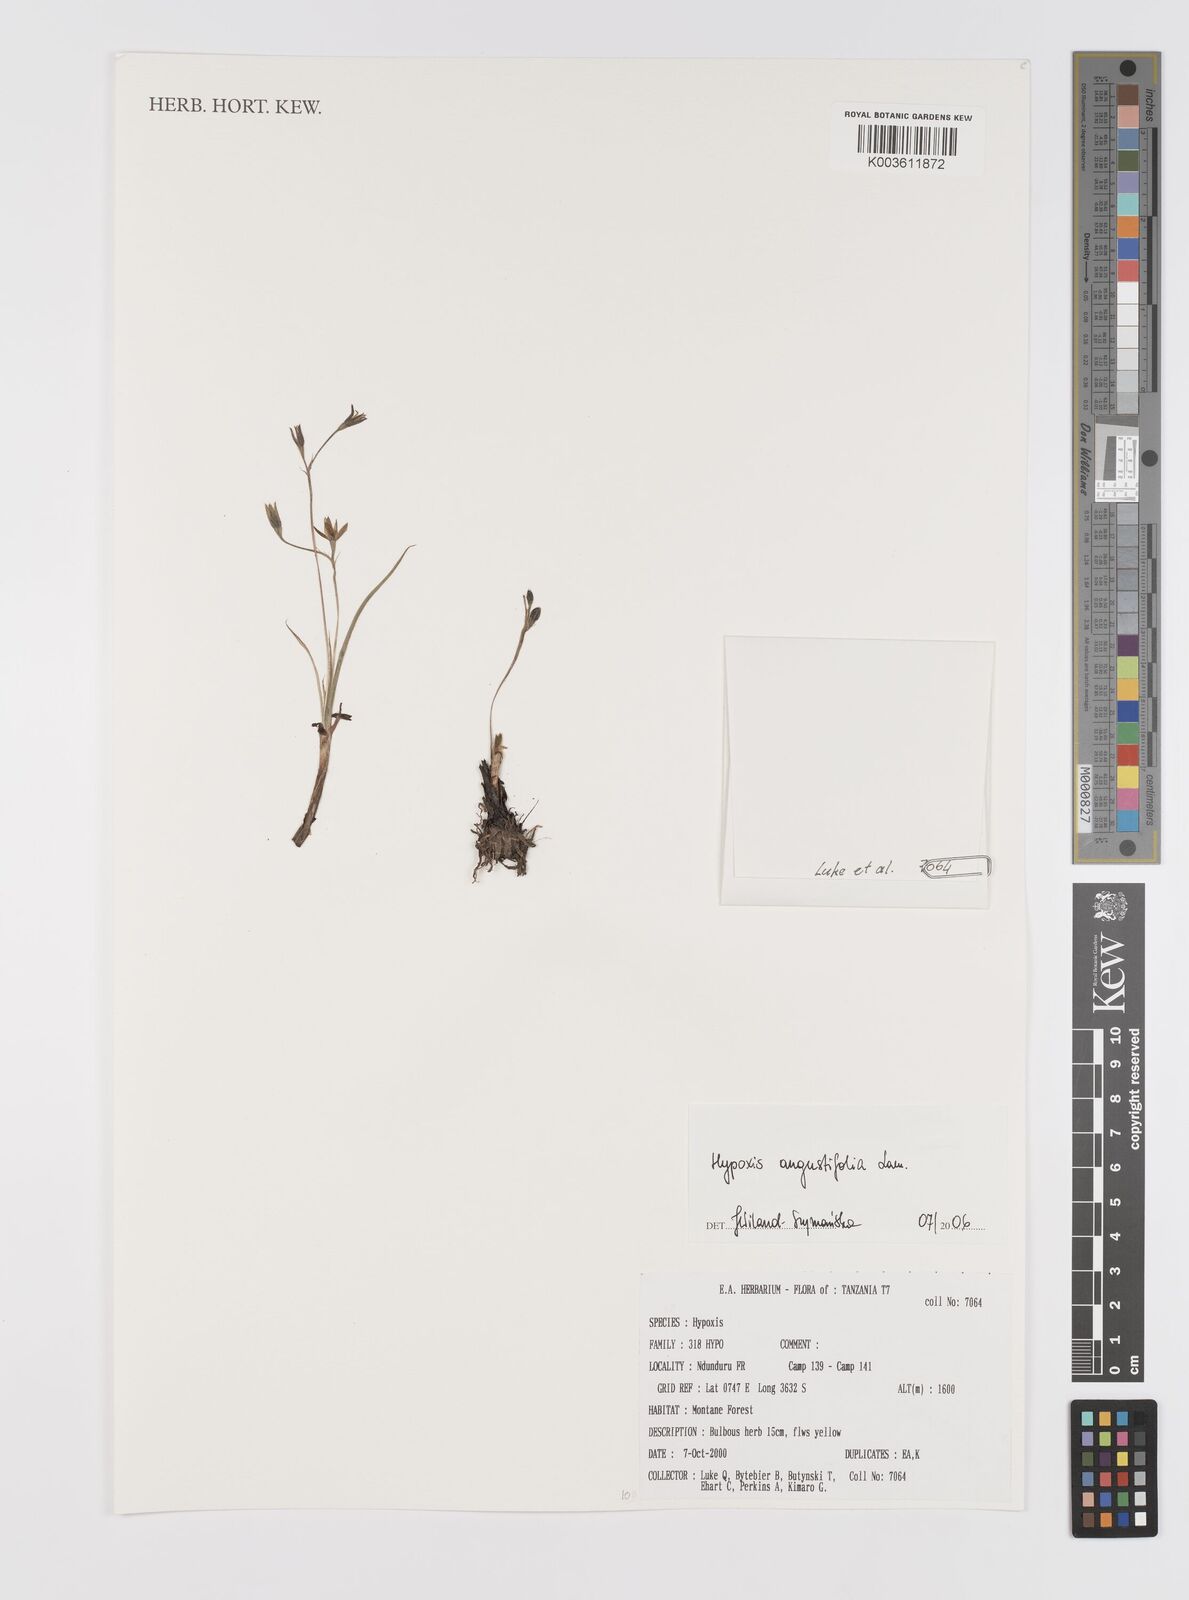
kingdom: Plantae
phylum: Tracheophyta
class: Liliopsida
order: Asparagales
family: Hypoxidaceae
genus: Hypoxis
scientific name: Hypoxis angustifolia
